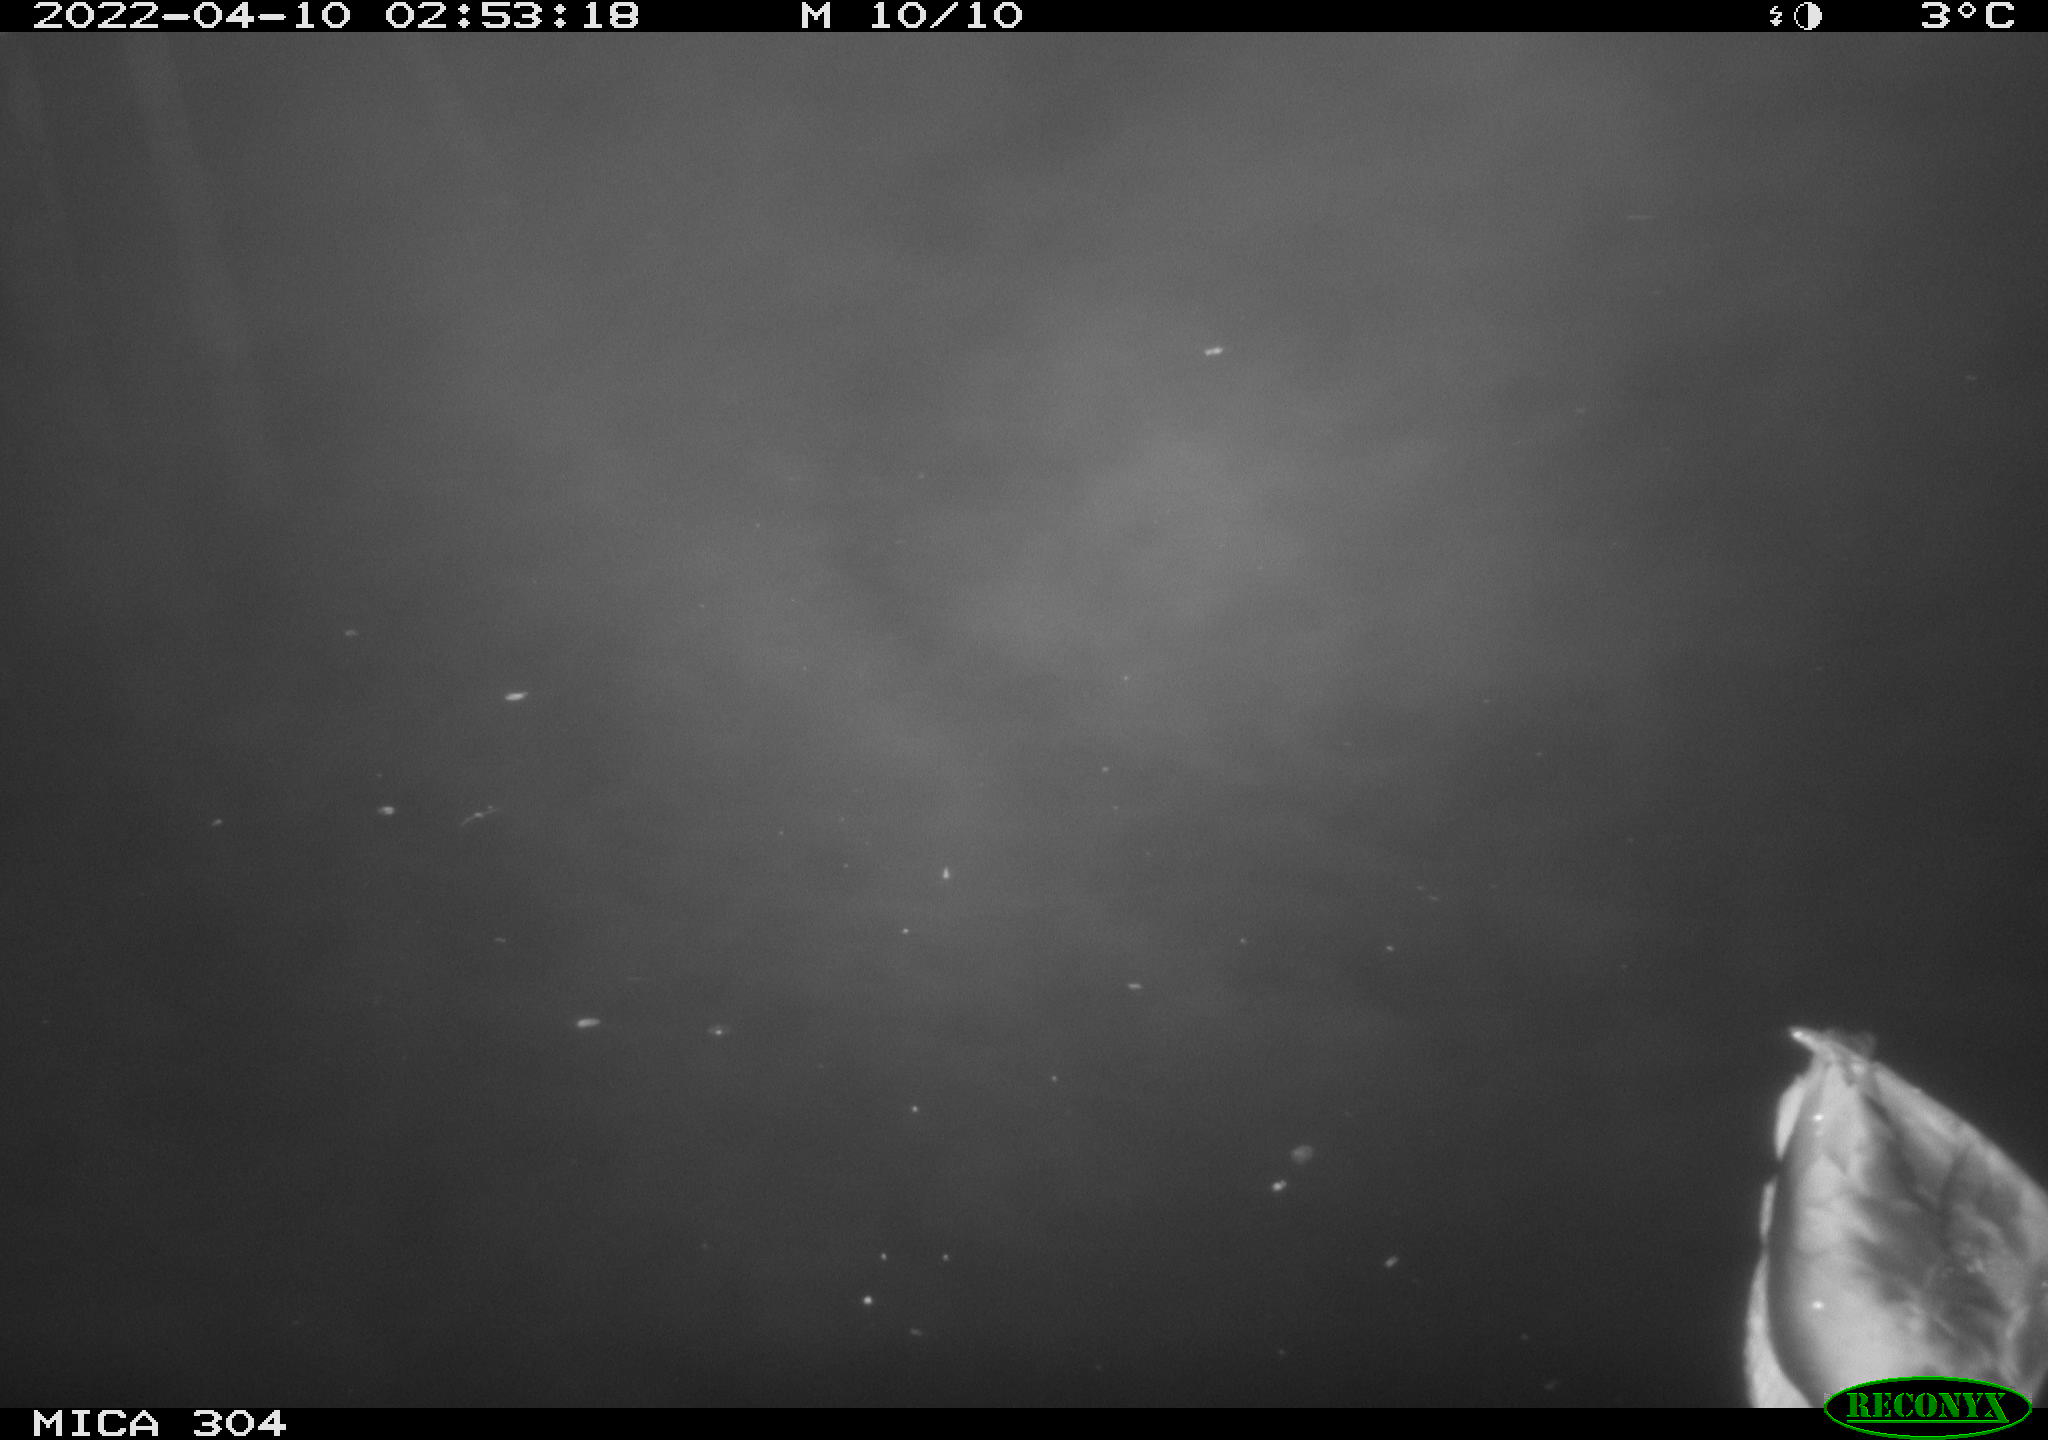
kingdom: Animalia
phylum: Chordata
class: Aves
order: Anseriformes
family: Anatidae
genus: Anas
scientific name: Anas platyrhynchos
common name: Mallard
